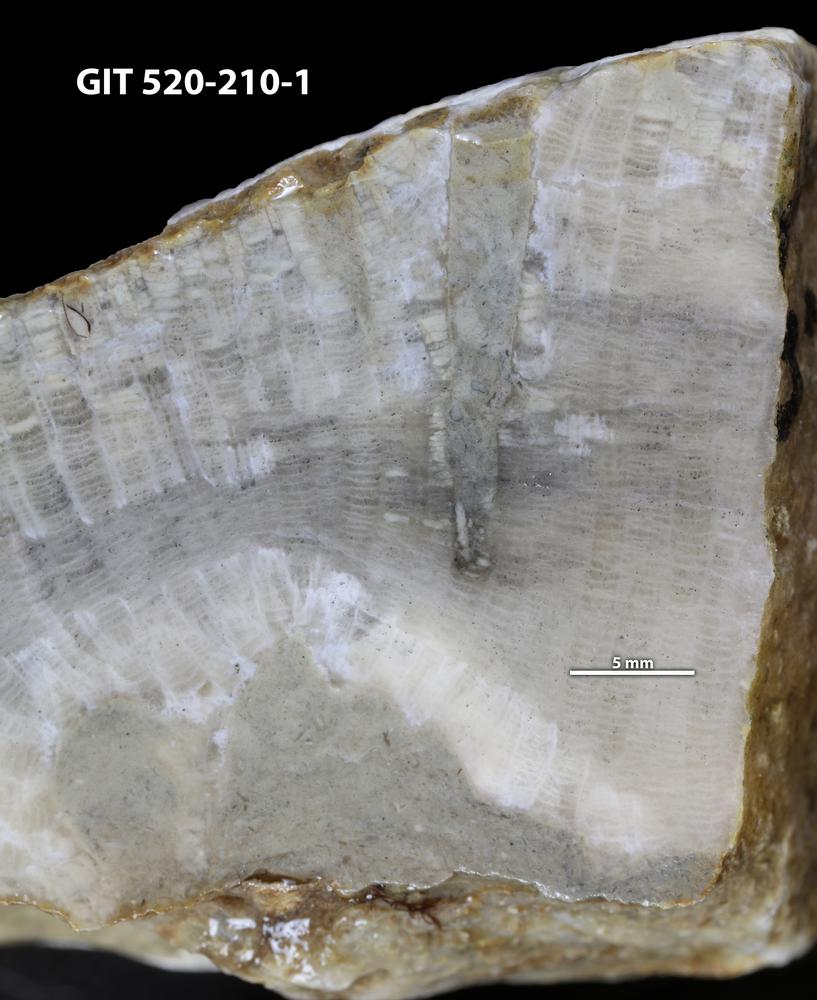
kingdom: Animalia
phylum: Sipuncula
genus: Trypanites
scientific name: Trypanites
